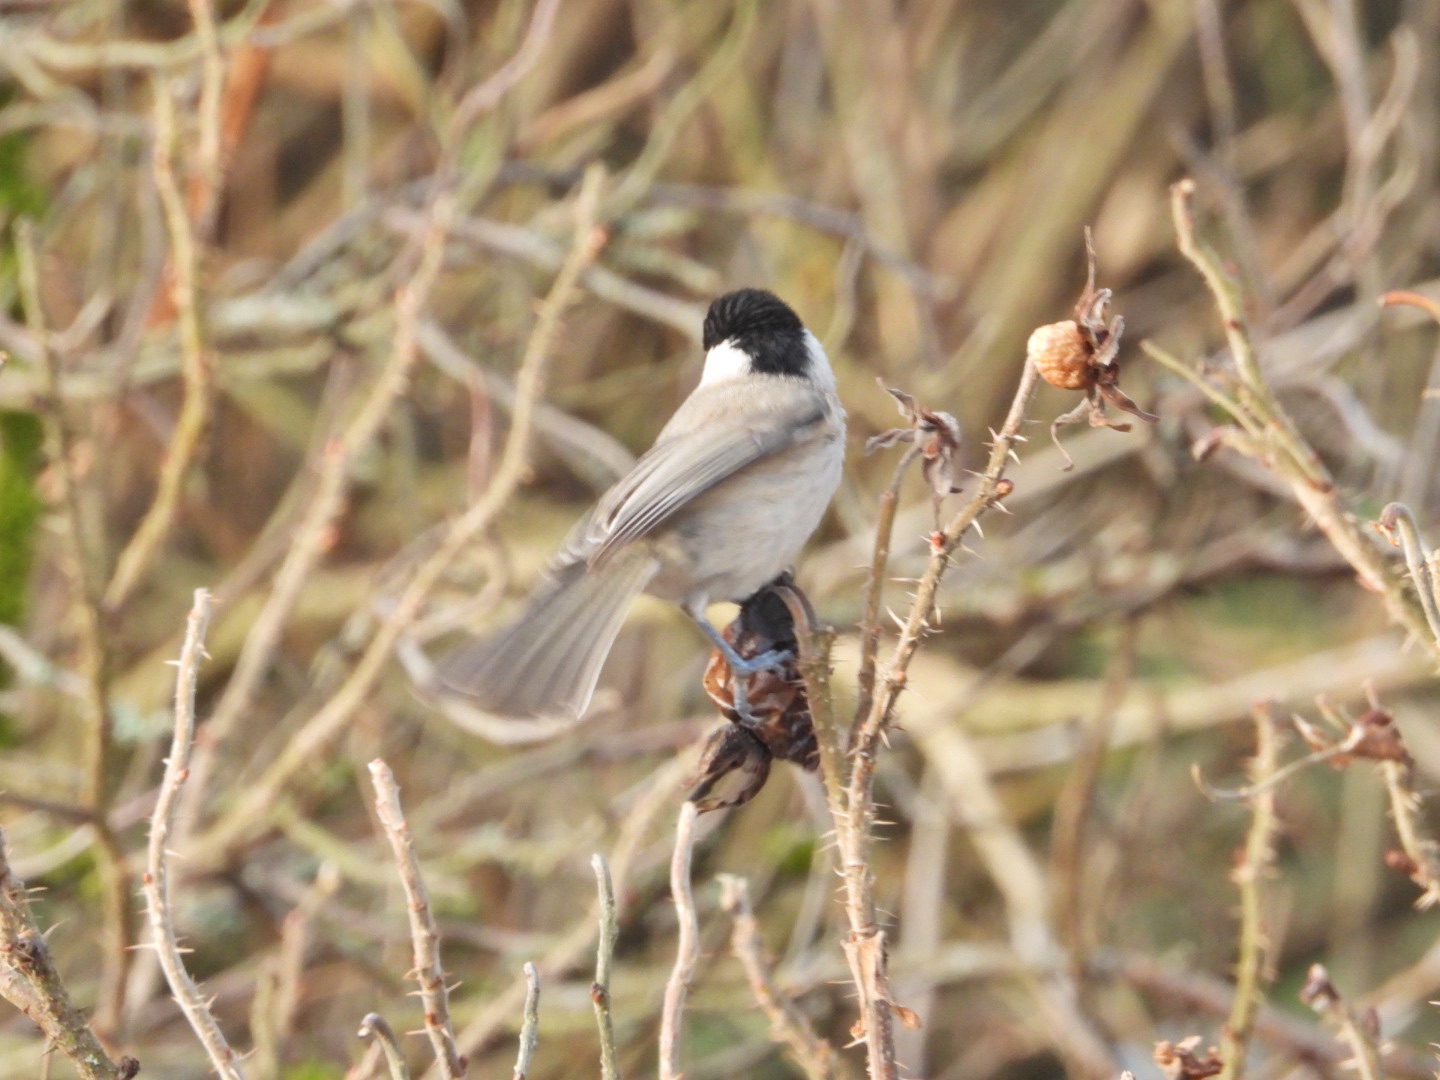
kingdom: Animalia
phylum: Chordata
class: Aves
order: Passeriformes
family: Paridae
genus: Poecile
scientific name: Poecile palustris
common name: Sumpmejse
